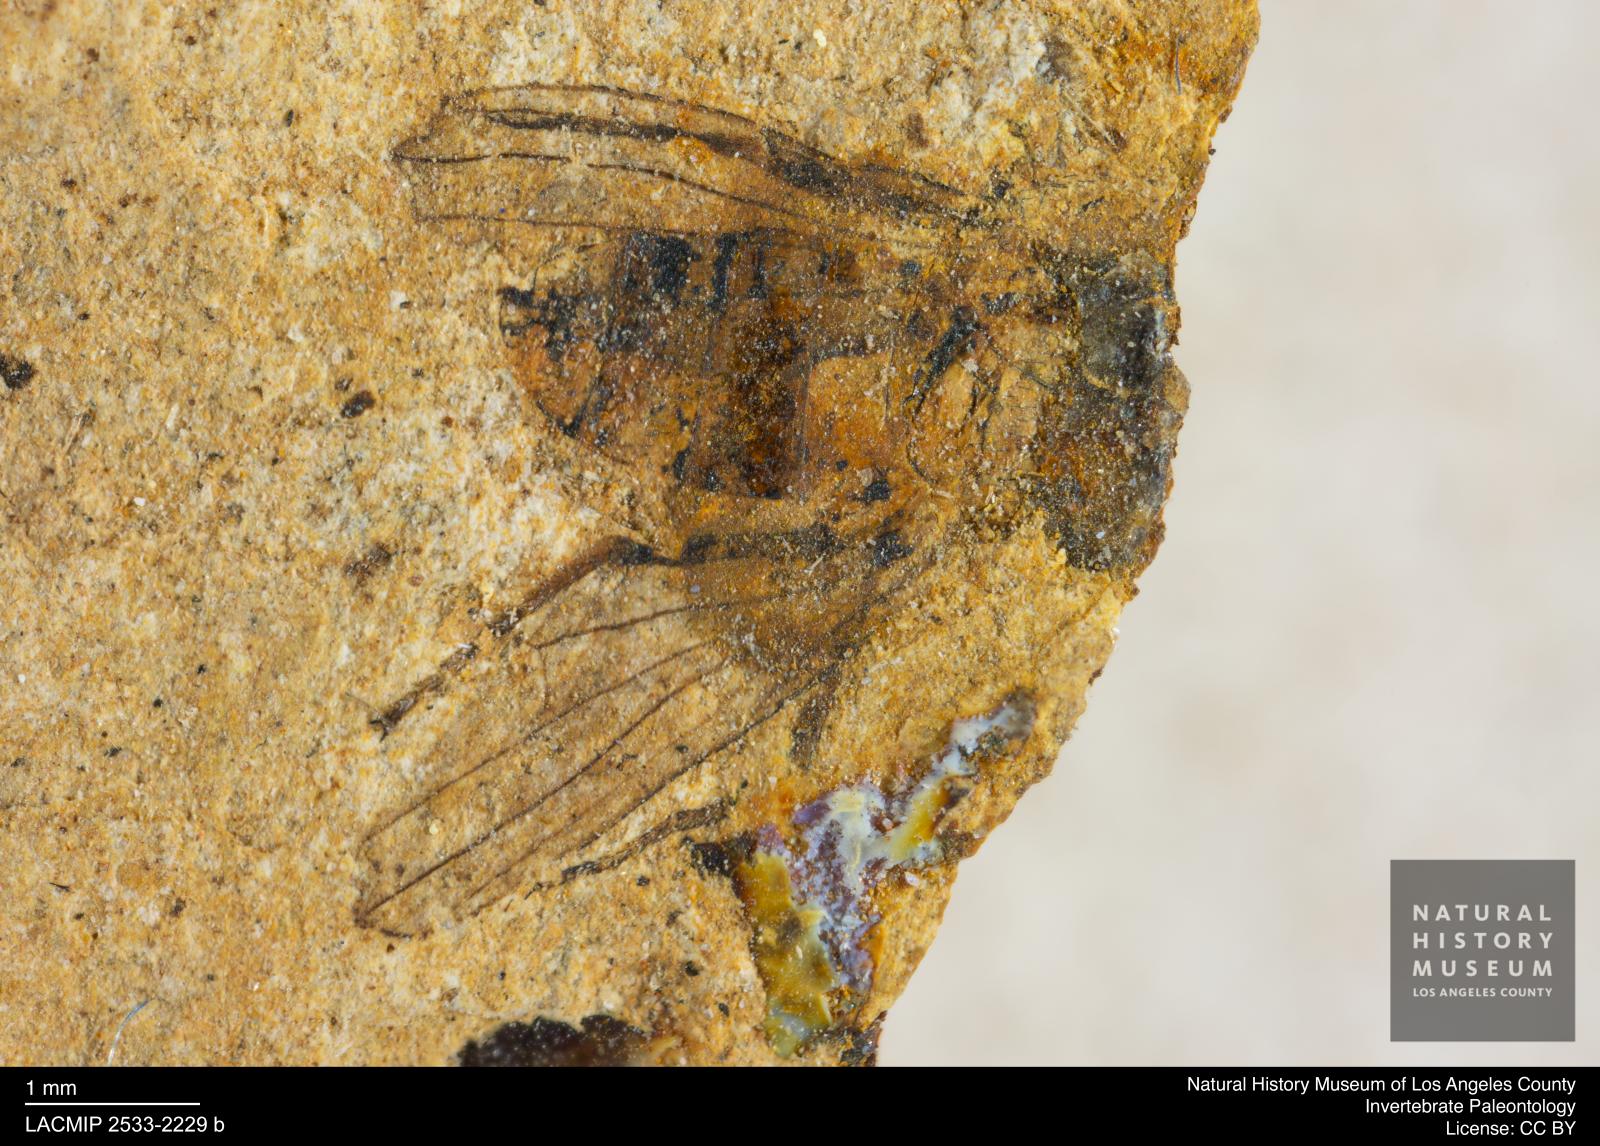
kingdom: Animalia
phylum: Arthropoda
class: Insecta
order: Diptera
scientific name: Diptera
